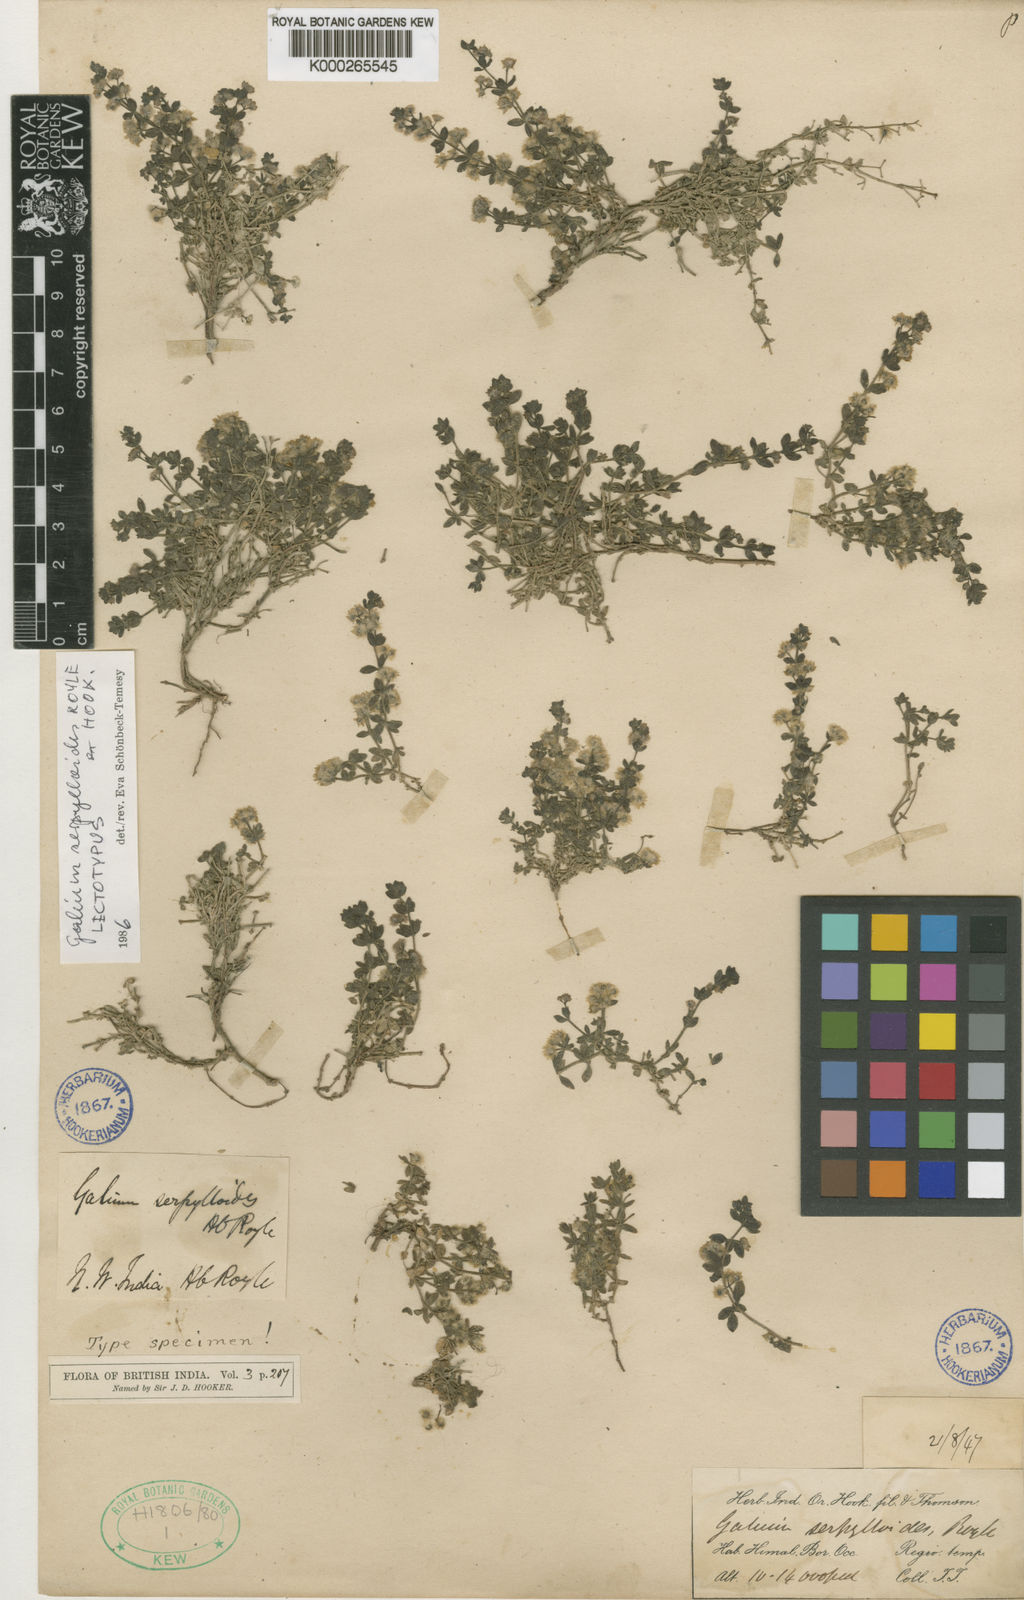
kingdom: Plantae
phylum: Tracheophyta
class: Magnoliopsida
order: Gentianales
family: Rubiaceae
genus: Galium
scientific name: Galium serpylloides
